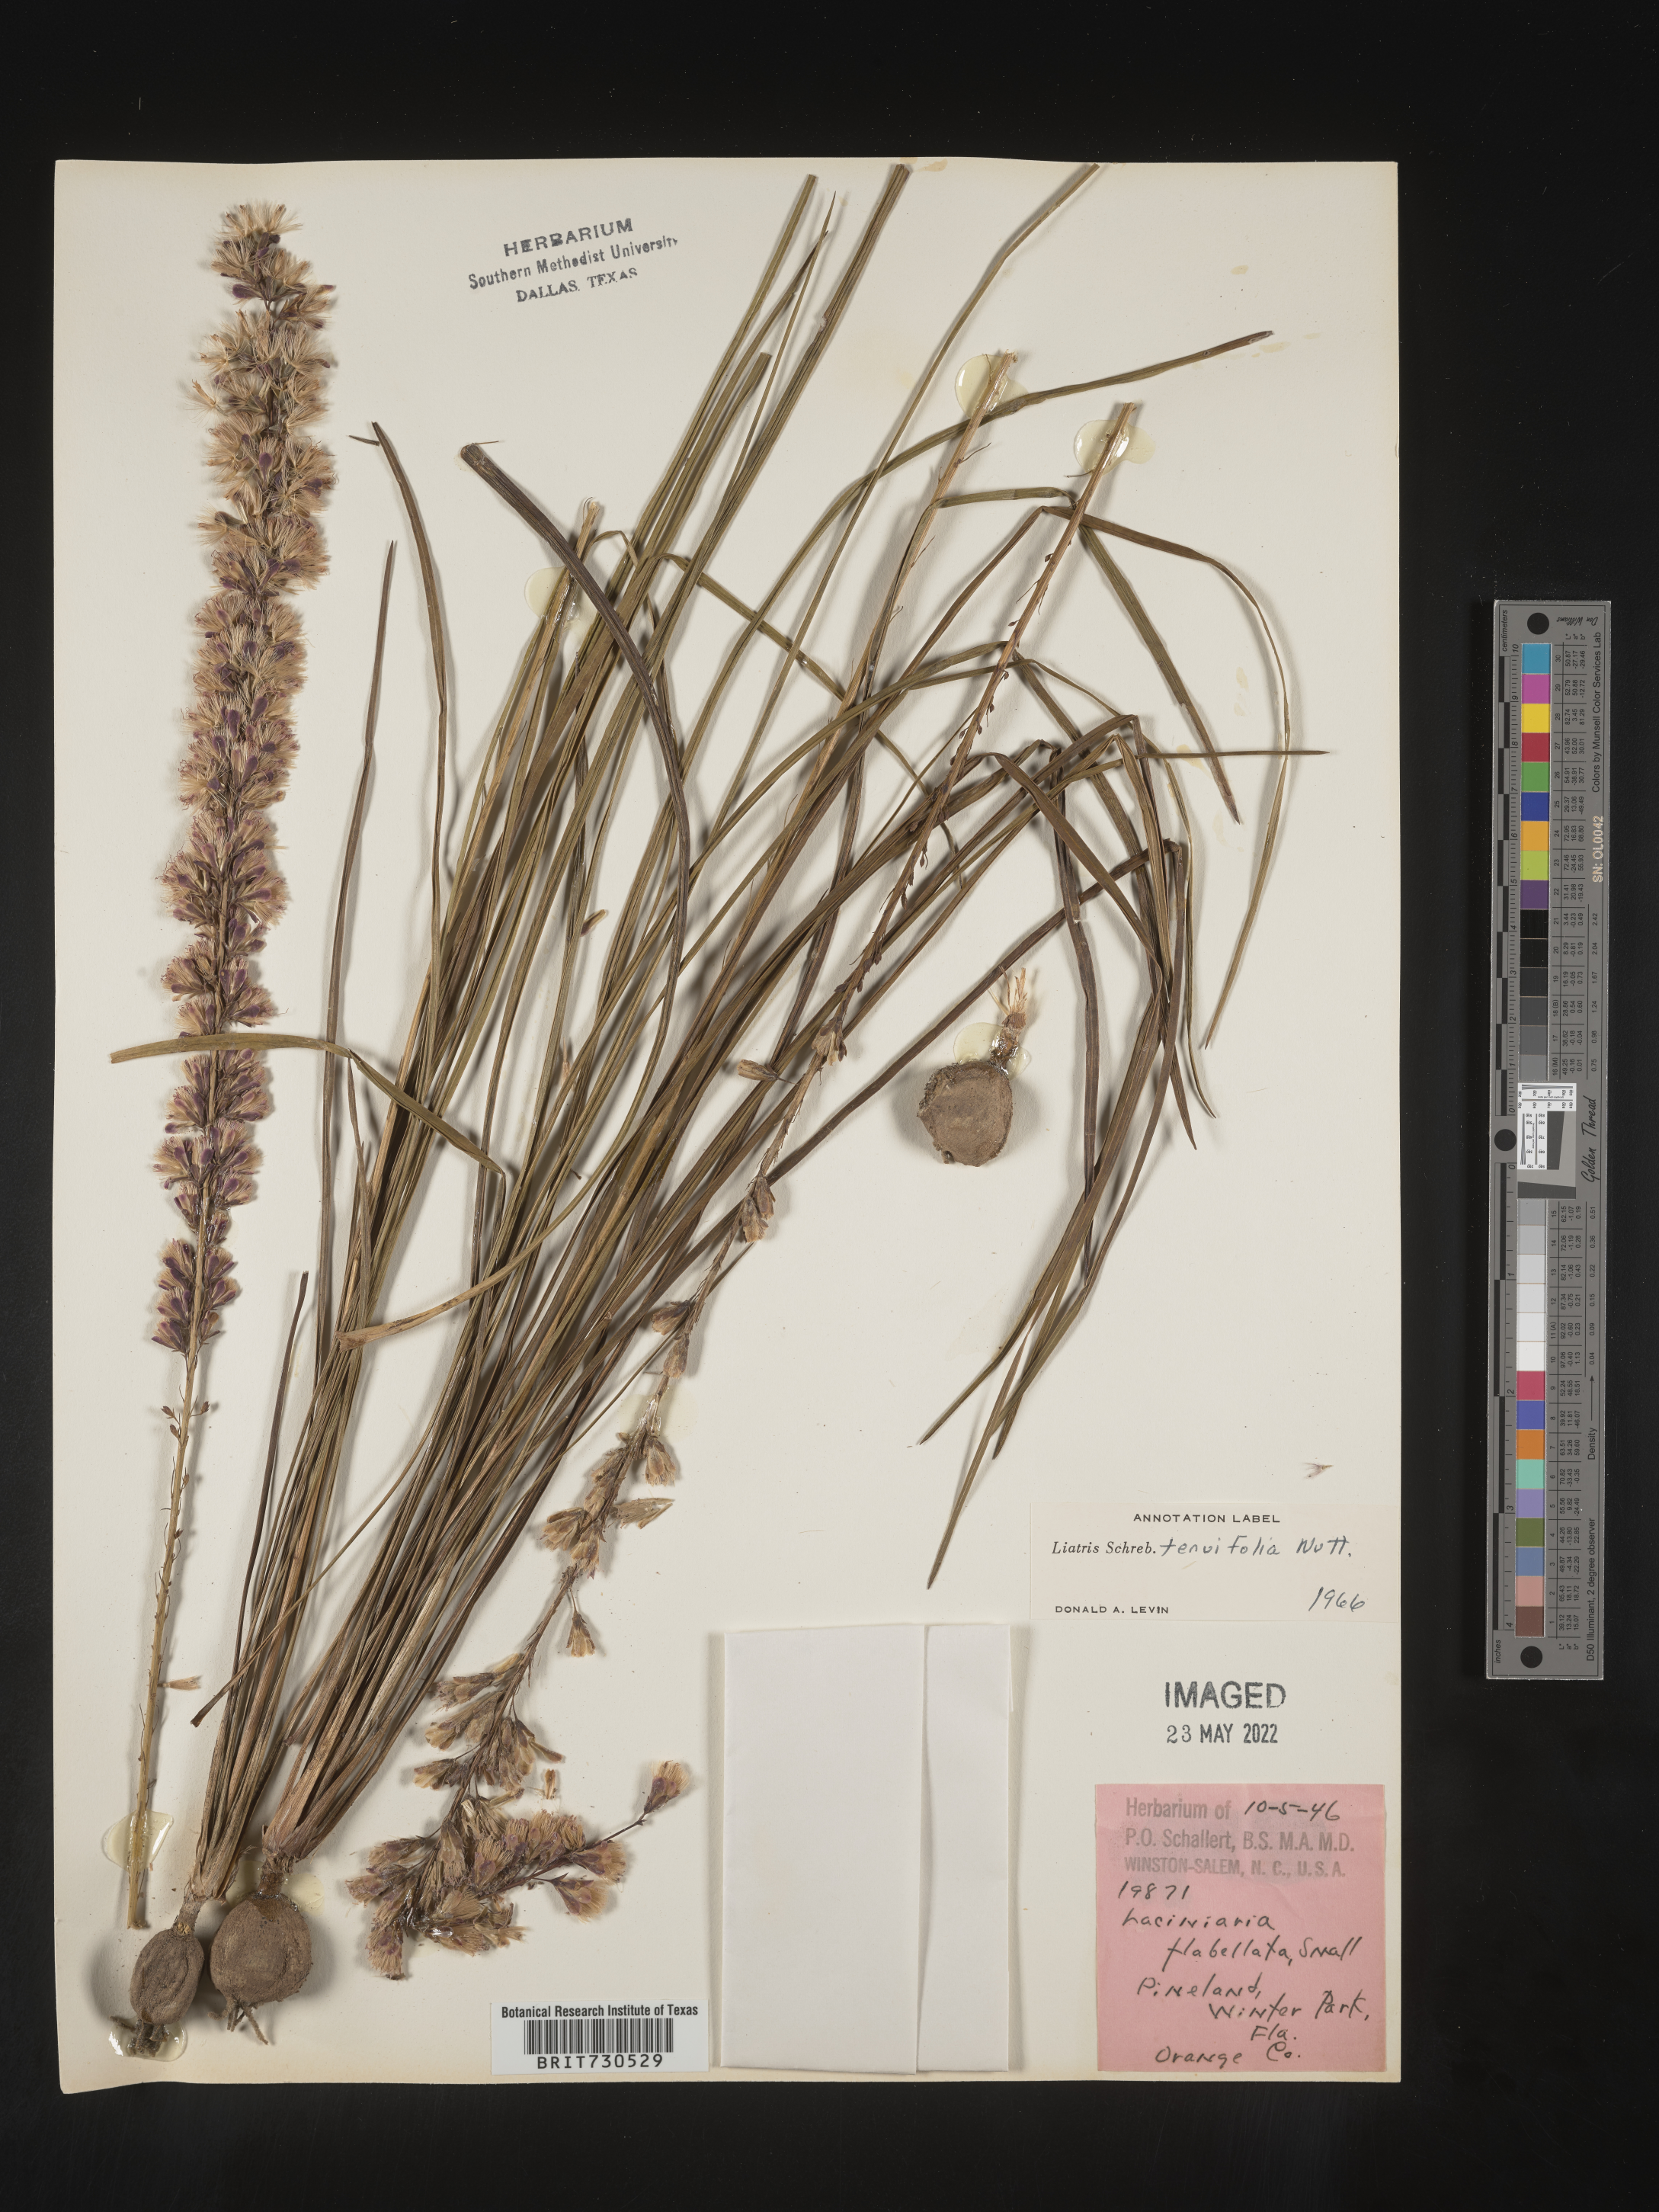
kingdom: Plantae
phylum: Tracheophyta
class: Magnoliopsida
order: Asterales
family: Asteraceae
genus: Liatris
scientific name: Liatris laevigata
